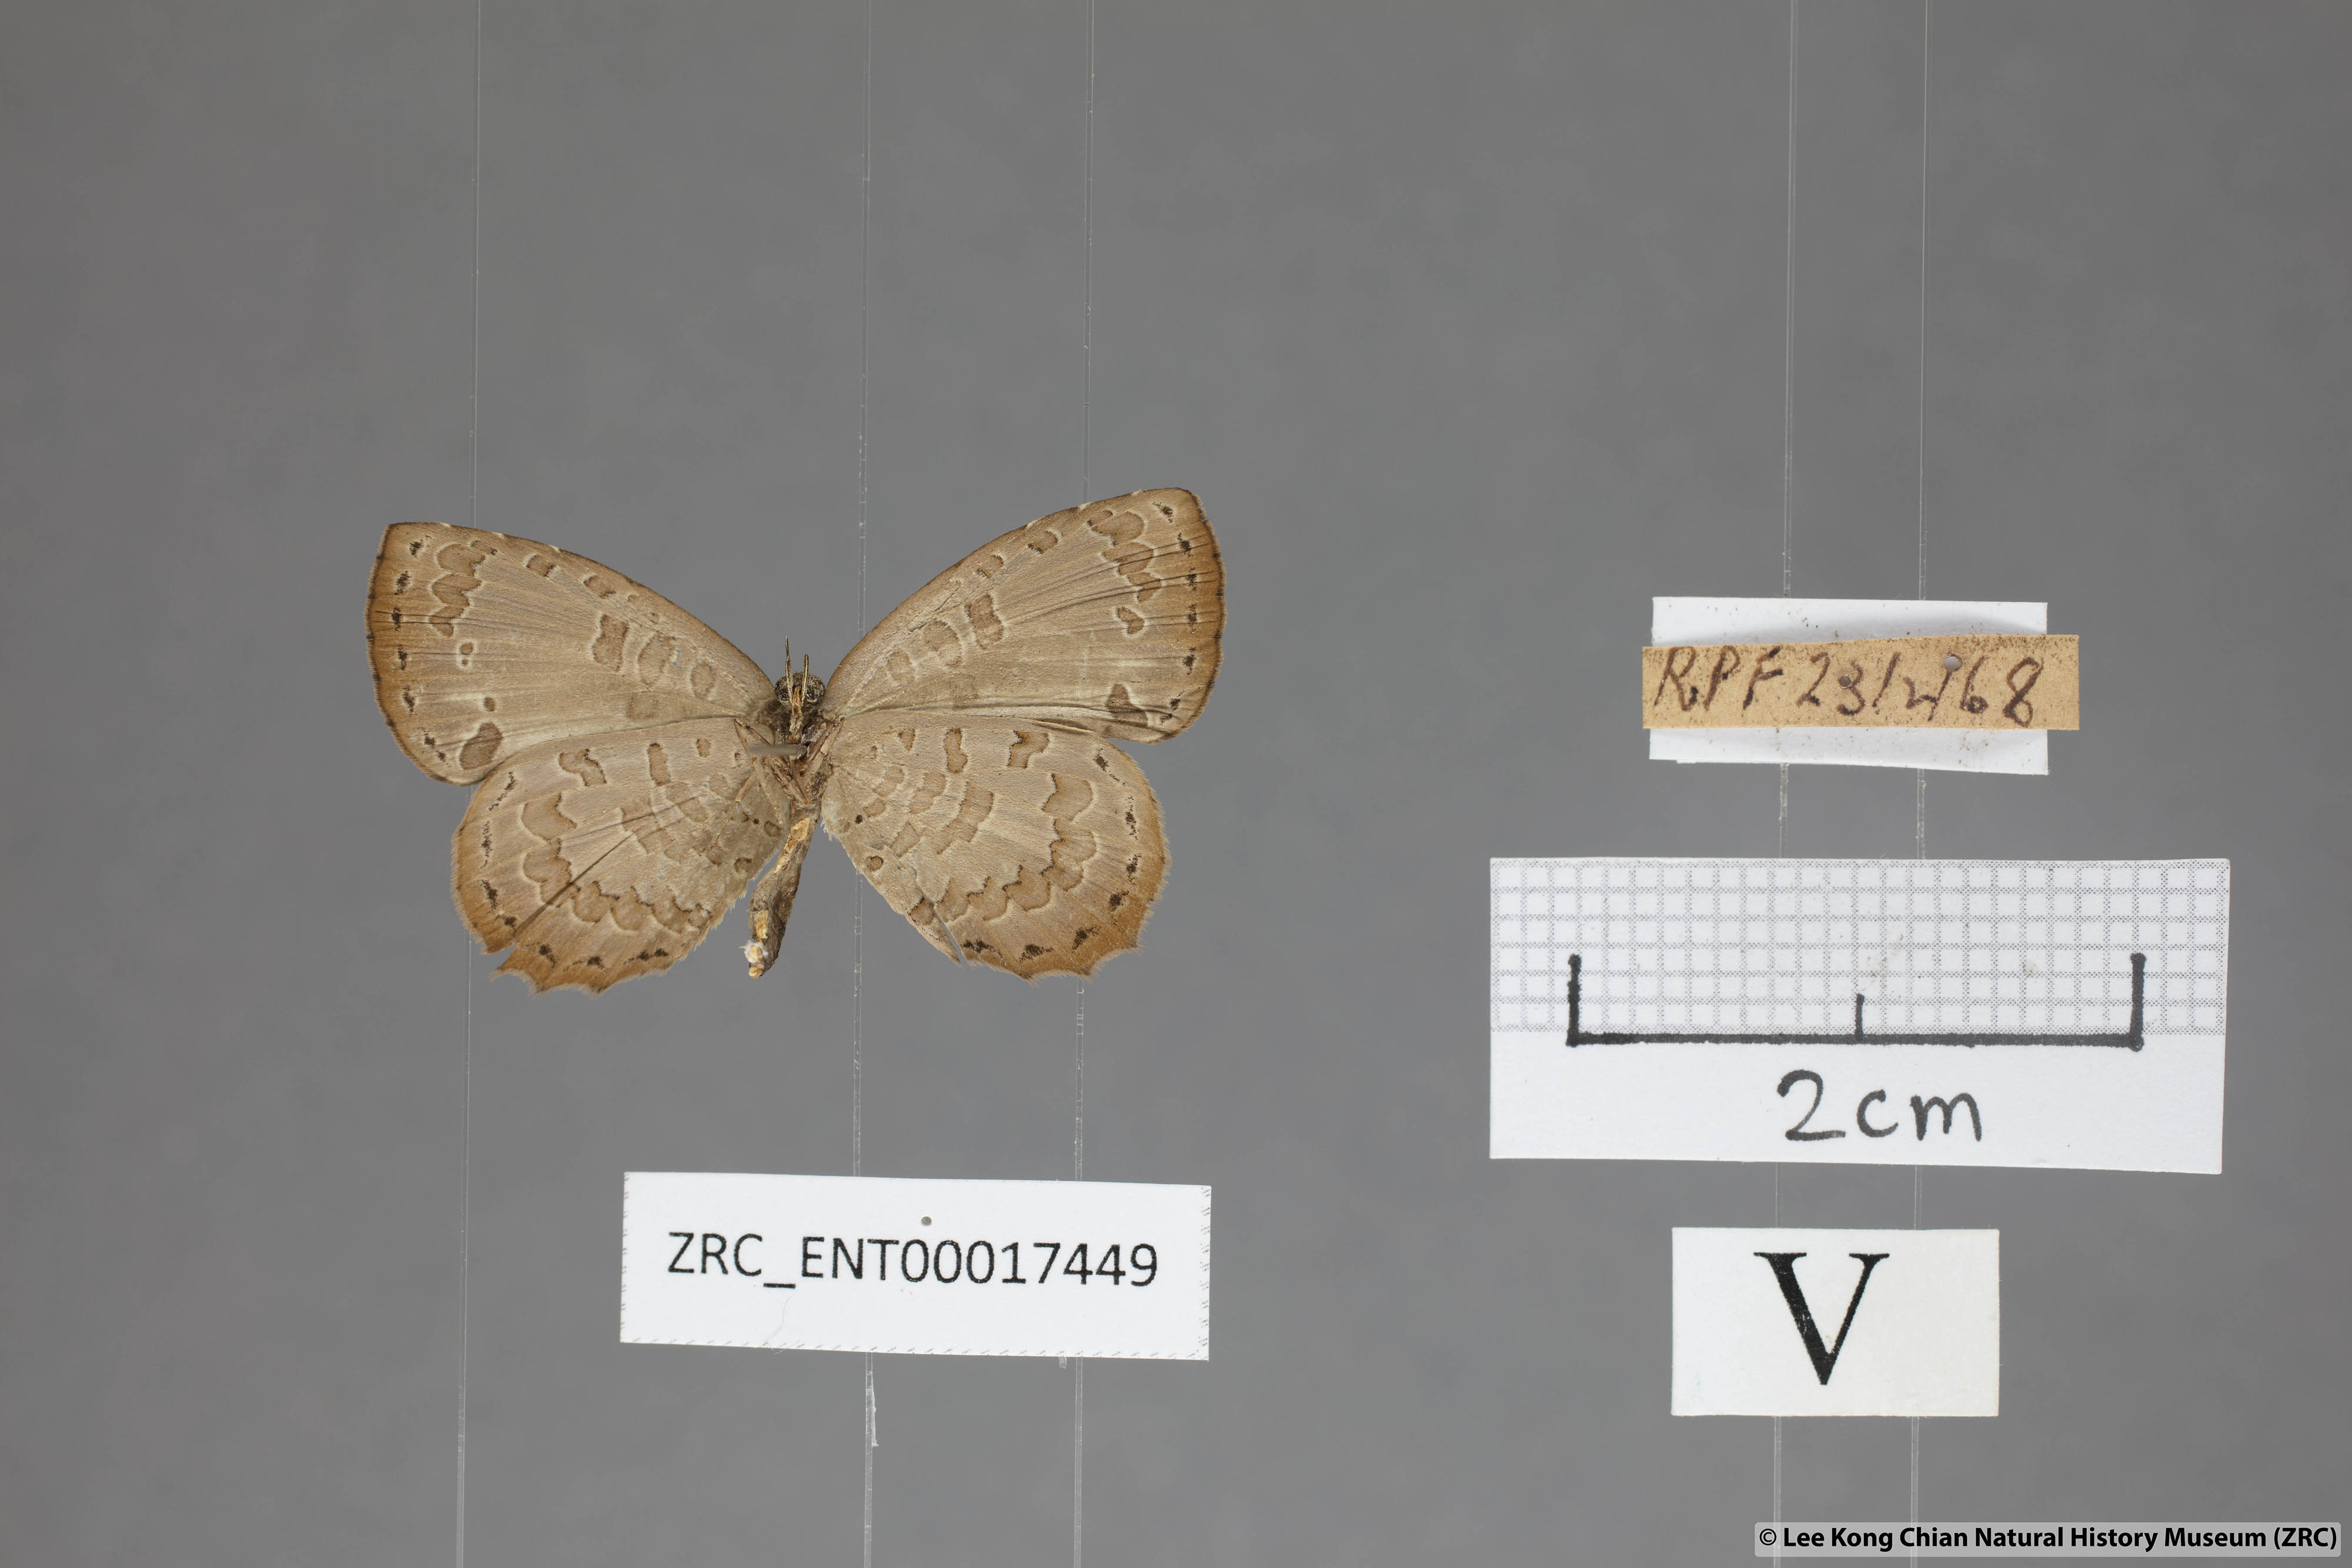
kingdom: Animalia
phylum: Arthropoda
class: Insecta
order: Lepidoptera
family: Lycaenidae
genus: Miletus
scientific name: Miletus gaesa
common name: Brown brownie
